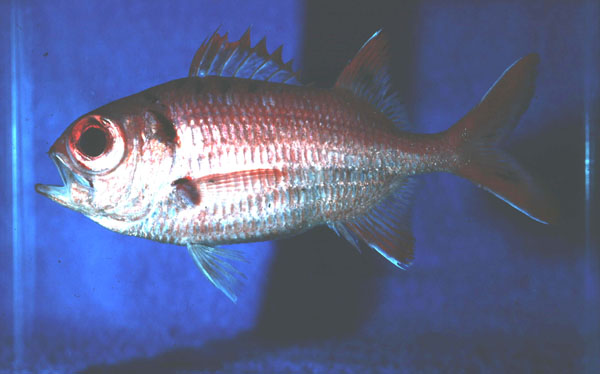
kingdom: Animalia
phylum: Chordata
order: Beryciformes
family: Holocentridae
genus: Myripristis
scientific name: Myripristis pralinia
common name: Big eye soldierfish
